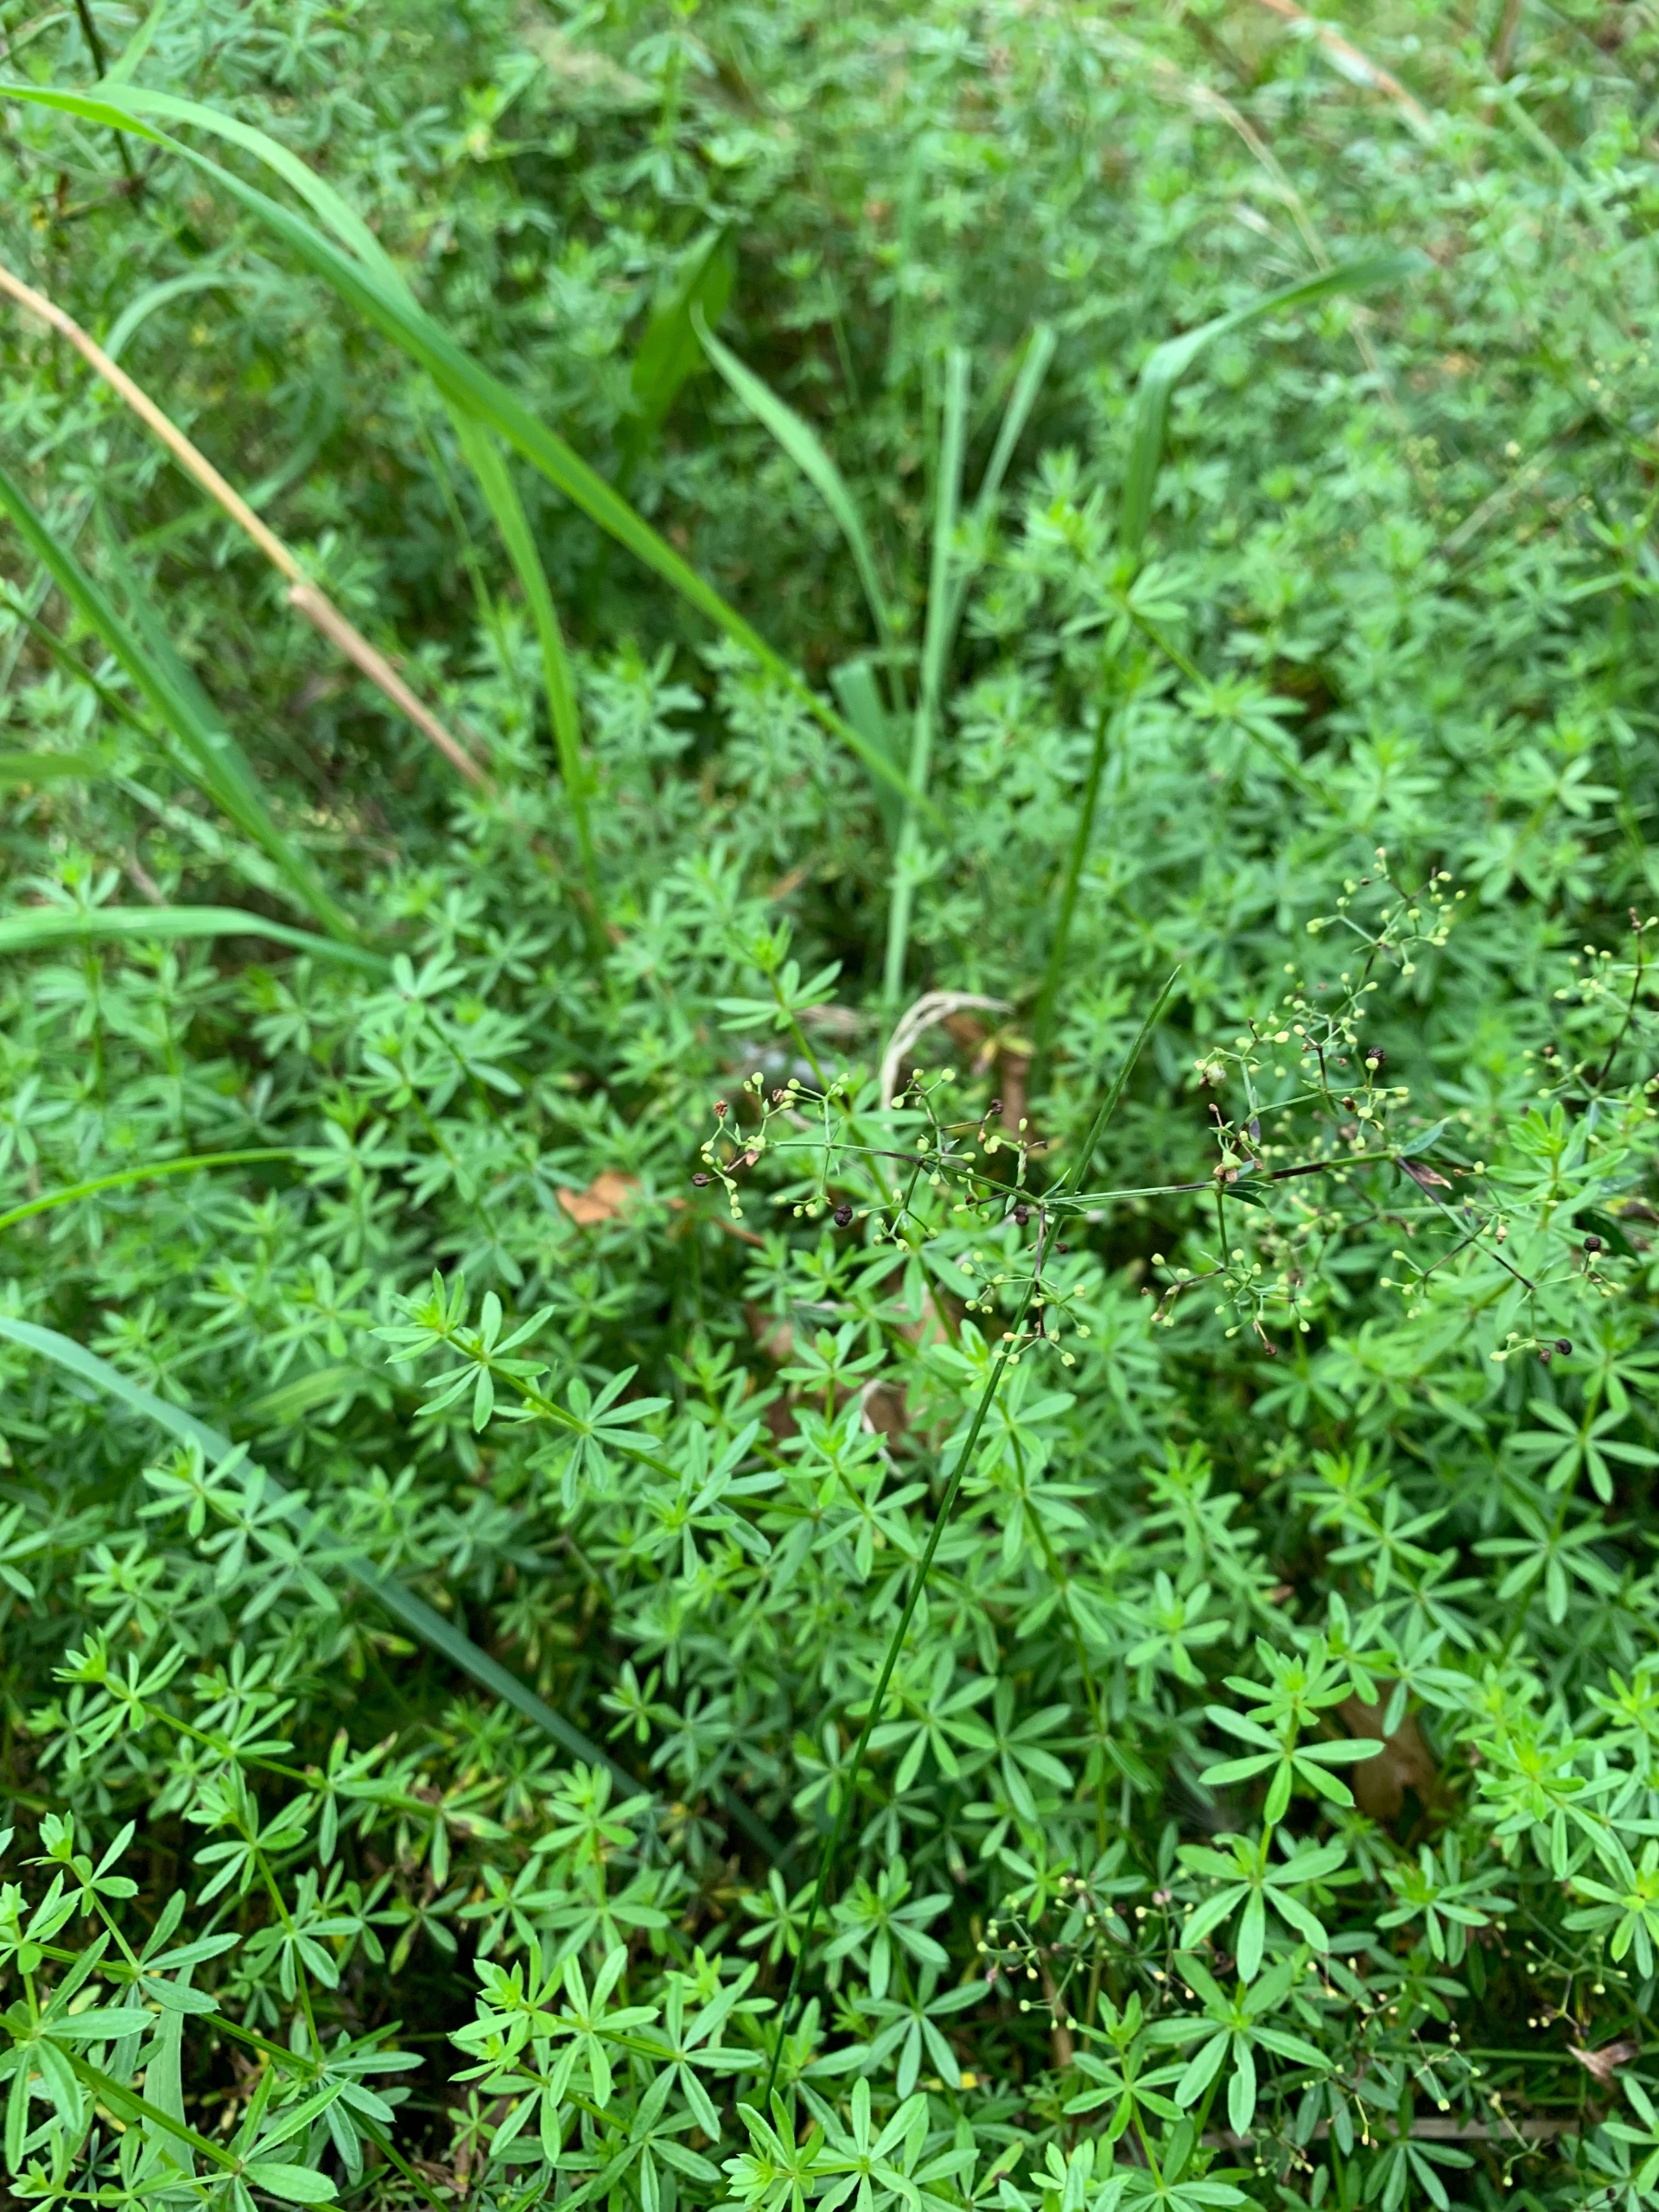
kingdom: Plantae
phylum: Tracheophyta
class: Magnoliopsida
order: Gentianales
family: Rubiaceae
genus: Galium
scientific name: Galium mollugo
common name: Hvid snerre
